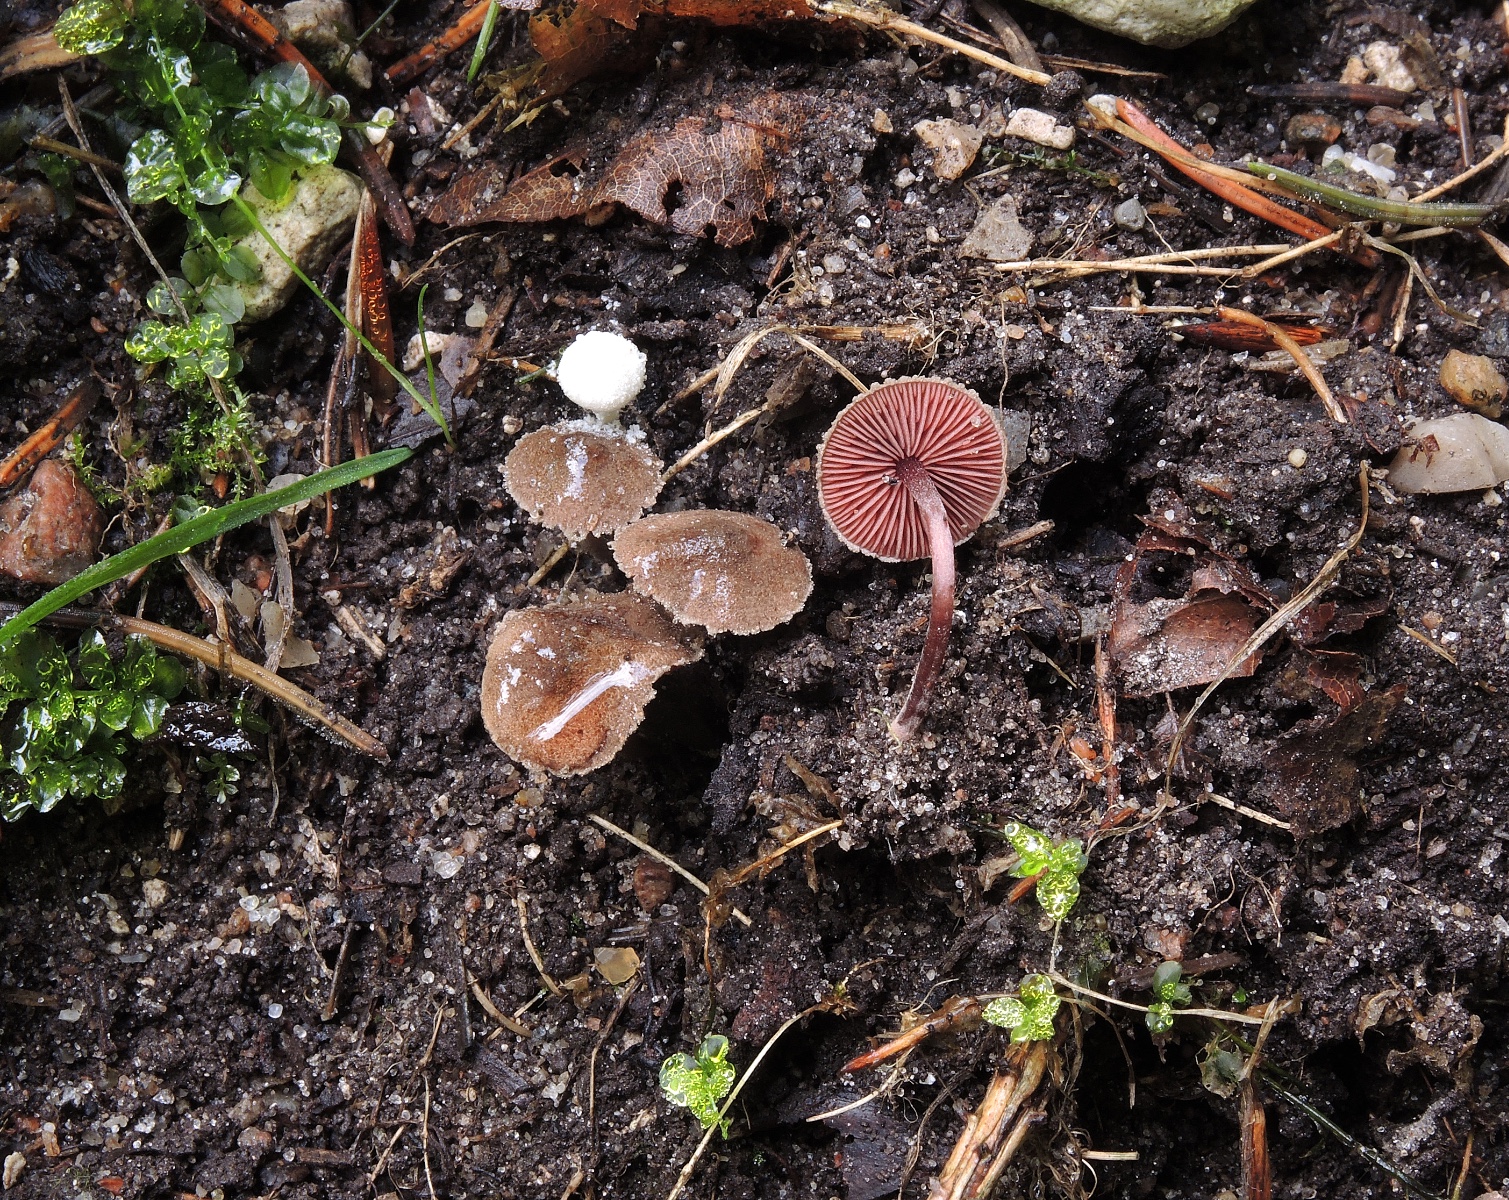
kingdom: Fungi
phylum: Basidiomycota
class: Agaricomycetes
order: Agaricales
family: Agaricaceae
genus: Melanophyllum
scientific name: Melanophyllum haematospermum
